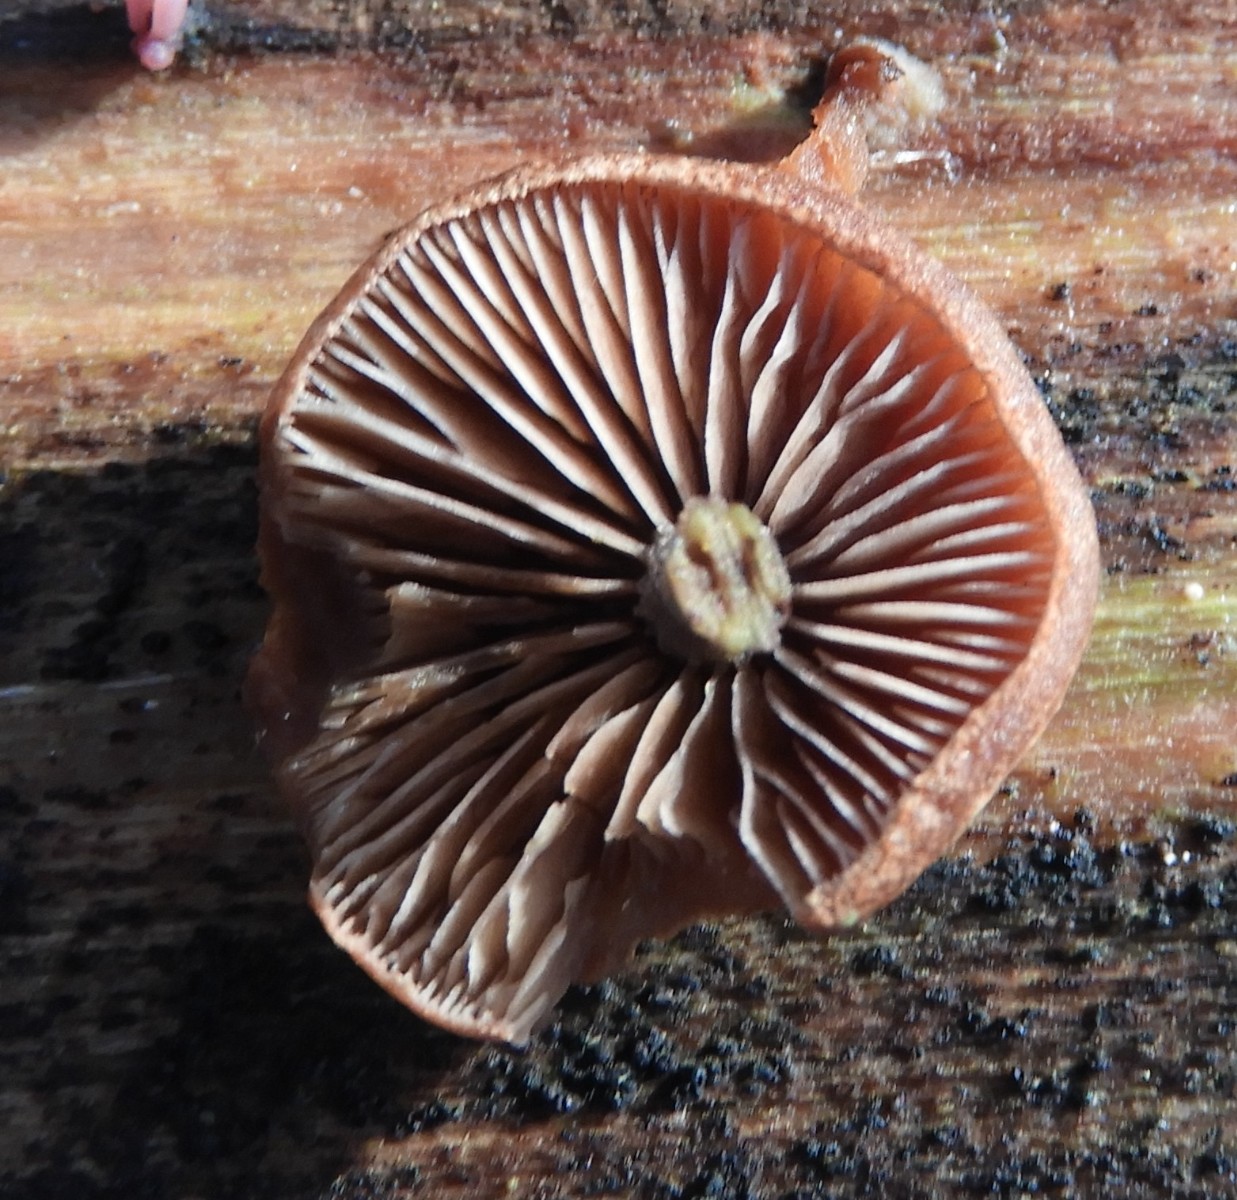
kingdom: Fungi
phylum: Basidiomycota
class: Agaricomycetes
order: Agaricales
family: Strophariaceae
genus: Deconica
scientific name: Deconica horizontalis
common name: ved-stråhat
